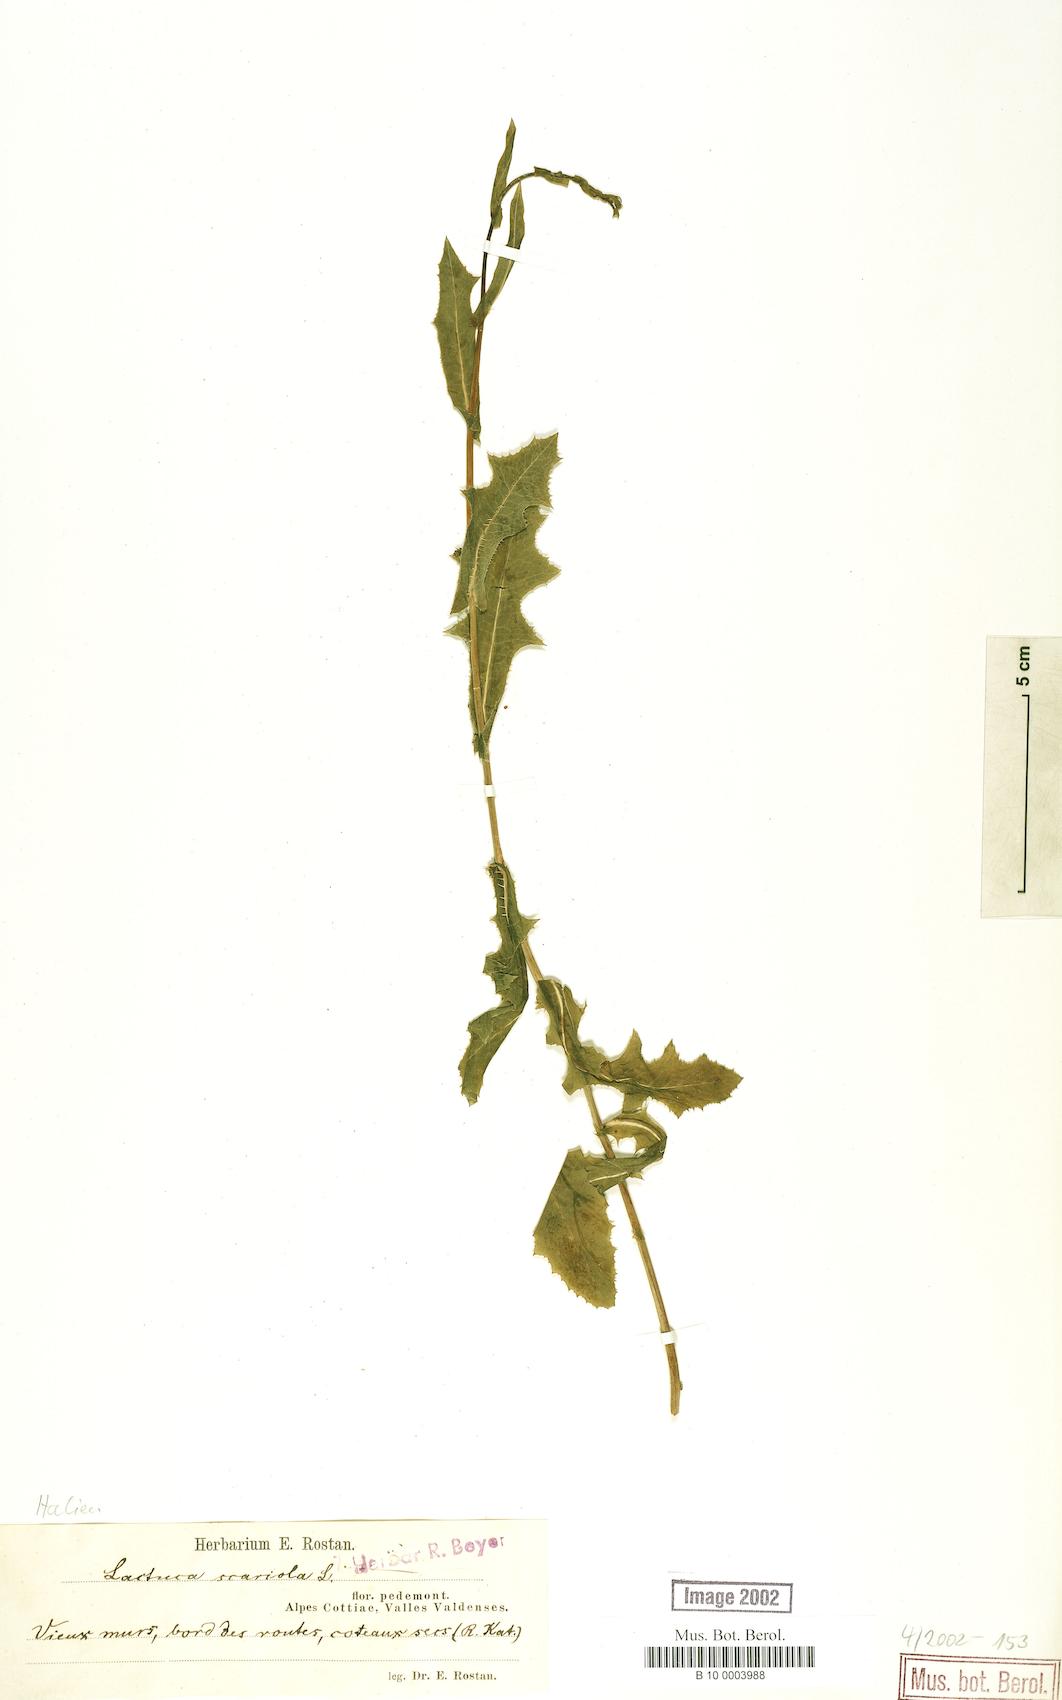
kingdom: Plantae
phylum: Tracheophyta
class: Magnoliopsida
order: Asterales
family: Asteraceae
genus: Lactuca
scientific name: Lactuca serriola
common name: Prickly lettuce
